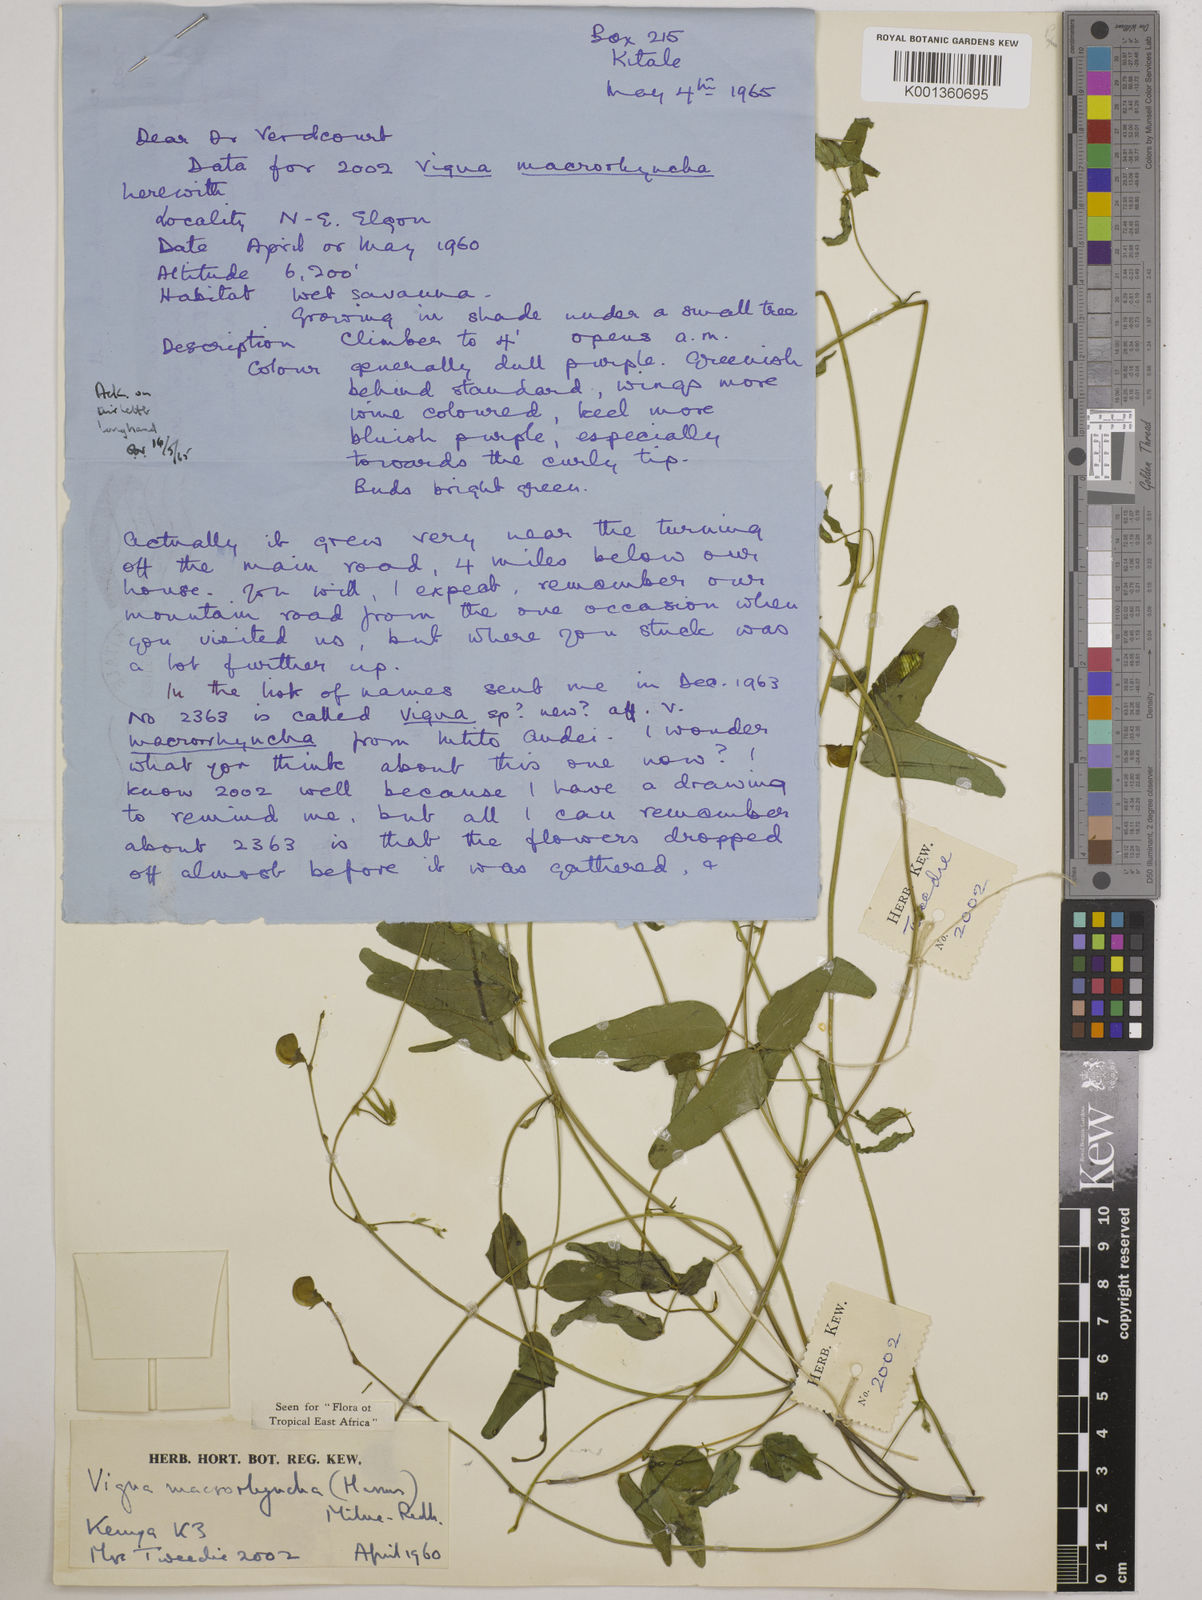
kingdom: Plantae
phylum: Tracheophyta
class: Magnoliopsida
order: Fabales
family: Fabaceae
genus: Wajira
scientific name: Wajira grahamiana
